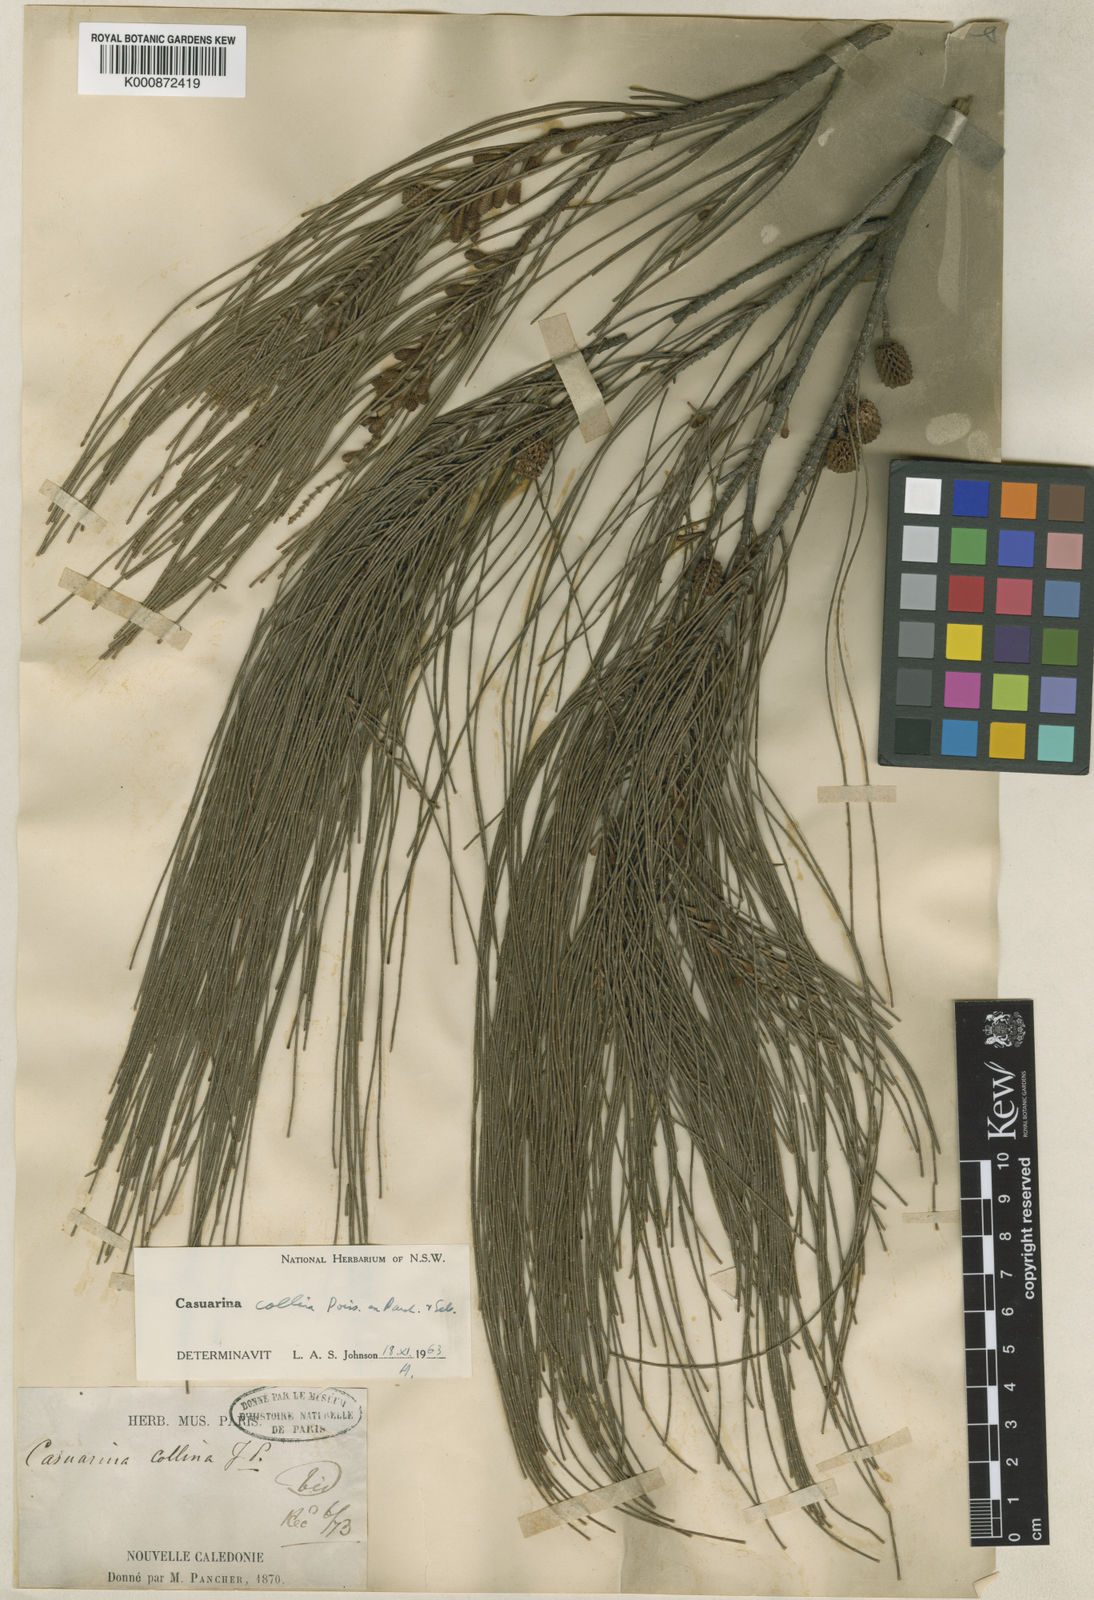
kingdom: Plantae
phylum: Tracheophyta
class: Magnoliopsida
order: Fagales
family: Casuarinaceae
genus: Casuarina
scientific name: Casuarina collina
